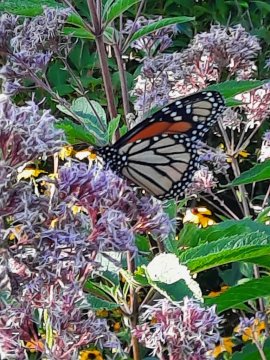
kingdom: Animalia
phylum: Arthropoda
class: Insecta
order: Lepidoptera
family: Nymphalidae
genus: Danaus
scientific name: Danaus plexippus
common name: Monarch
